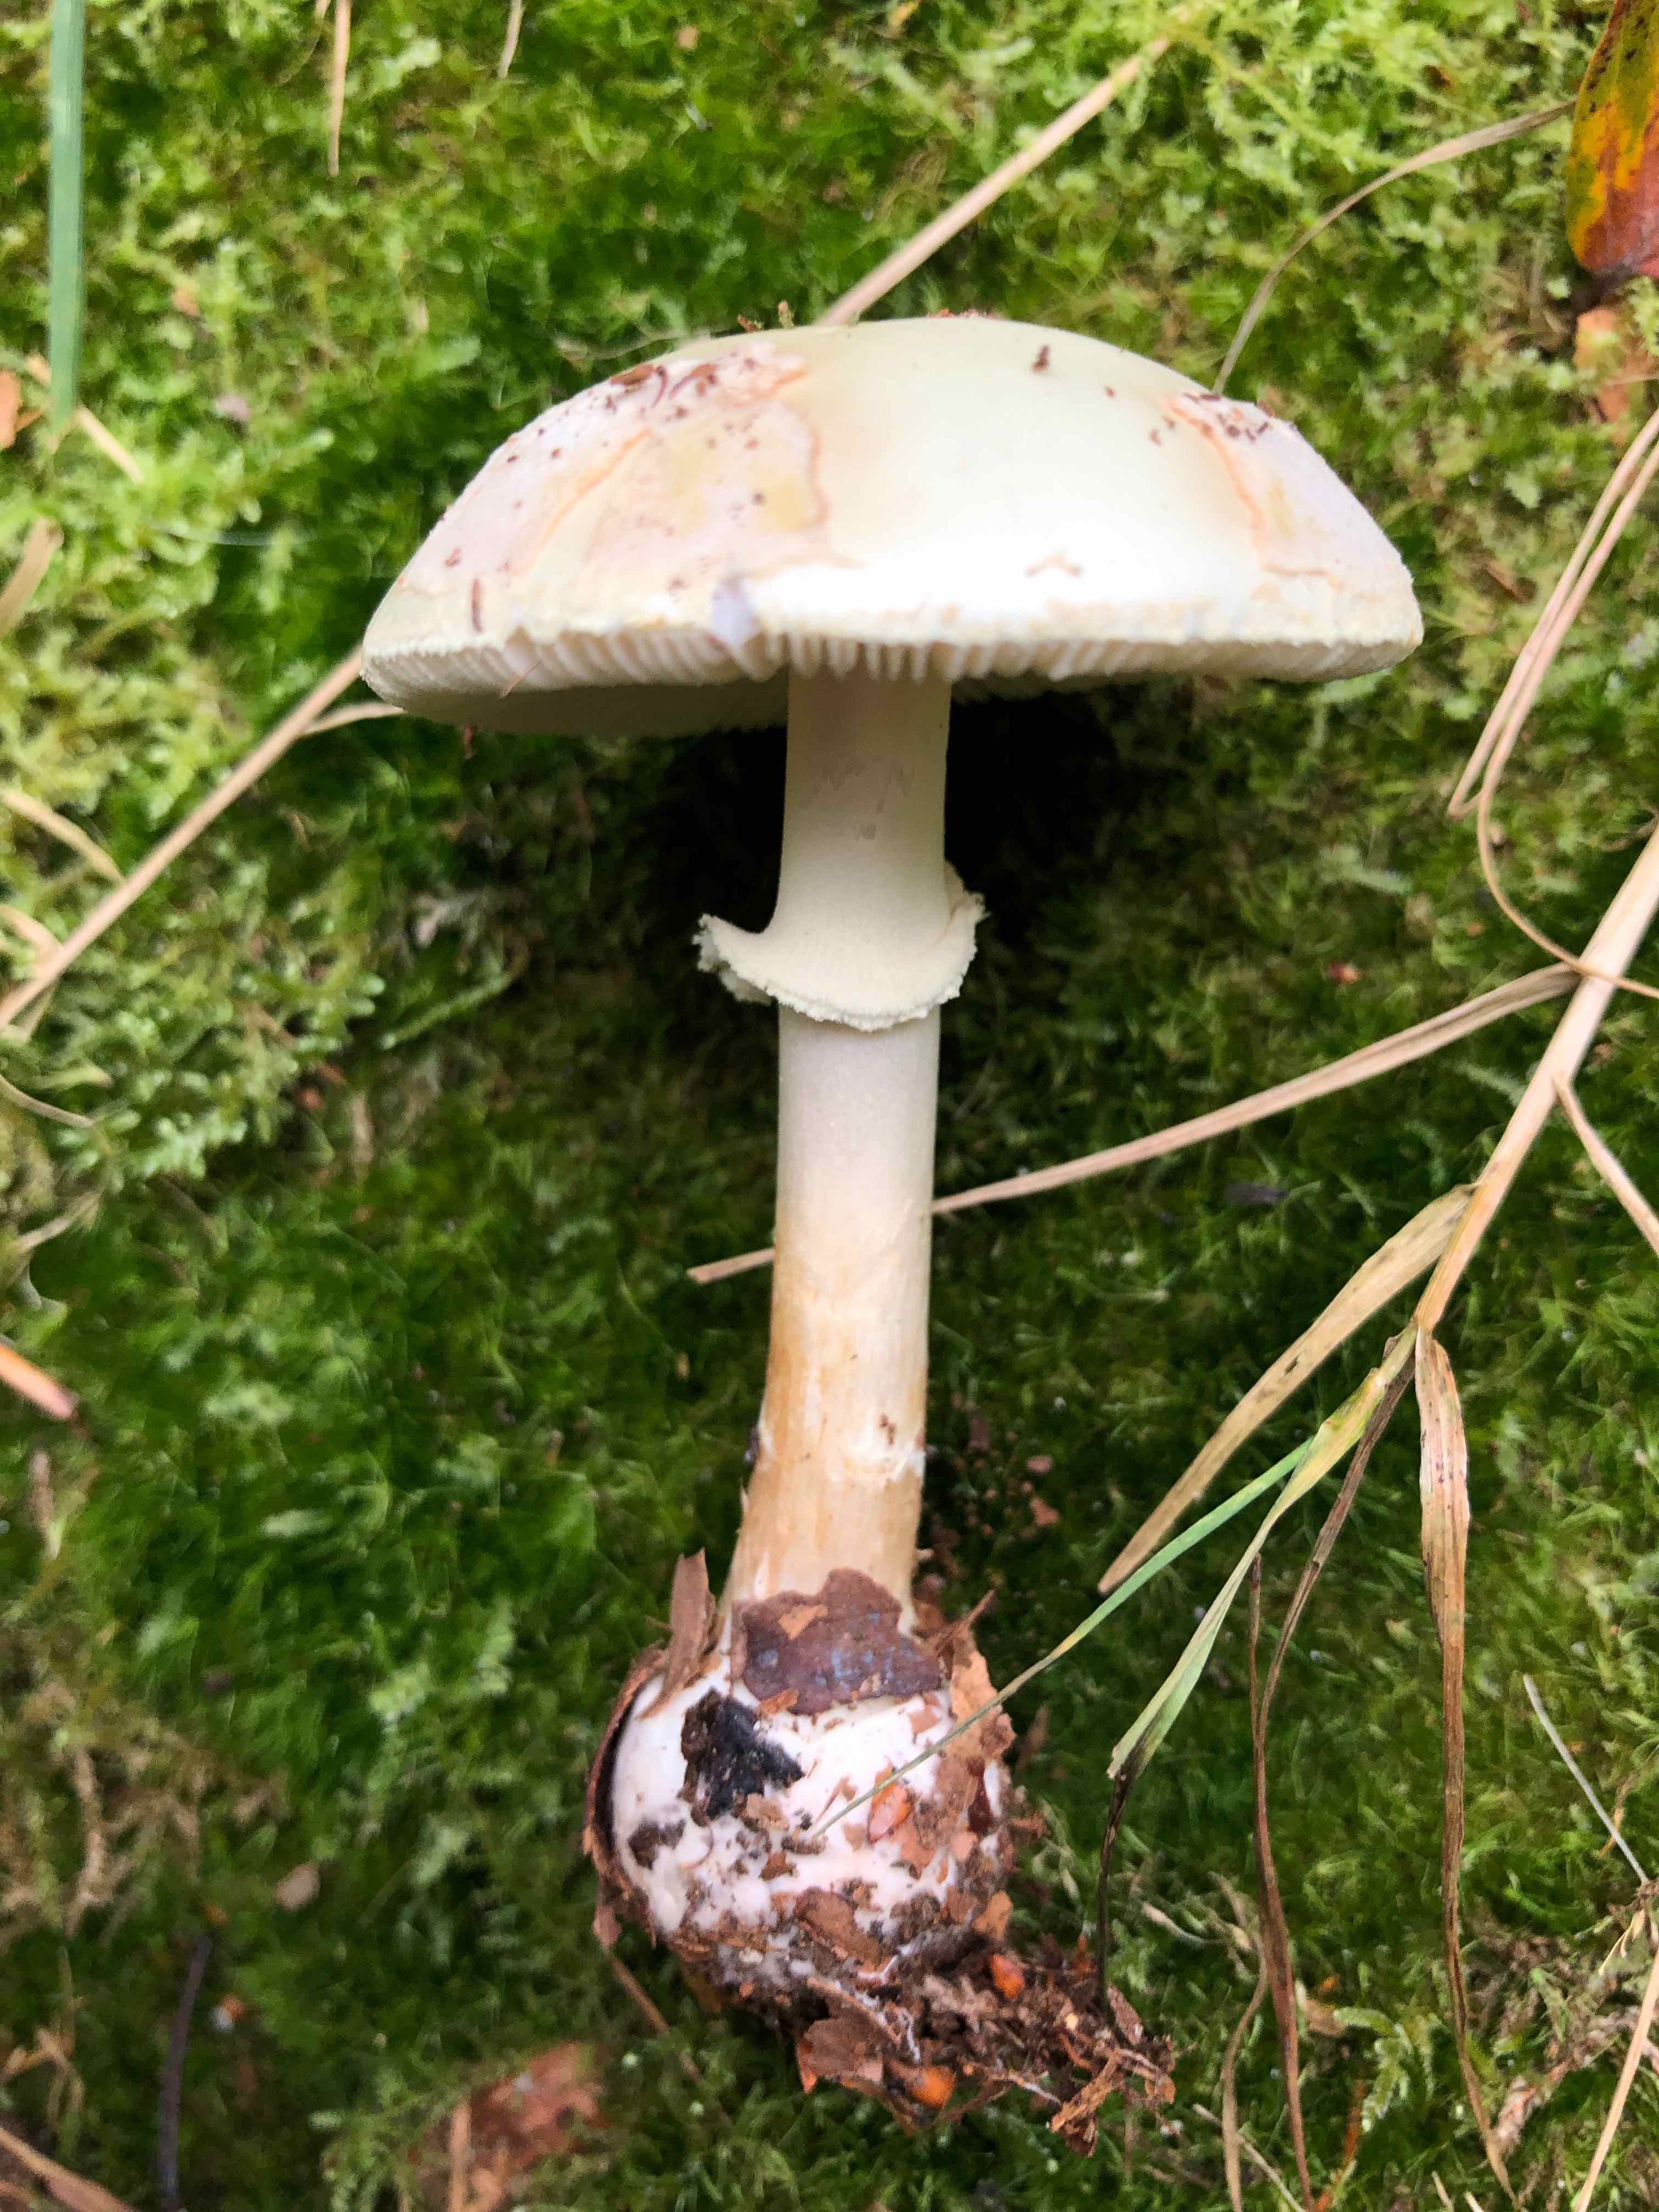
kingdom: Fungi
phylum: Basidiomycota
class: Agaricomycetes
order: Agaricales
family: Amanitaceae
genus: Amanita
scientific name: Amanita citrina
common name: kugleknoldet fluesvamp
